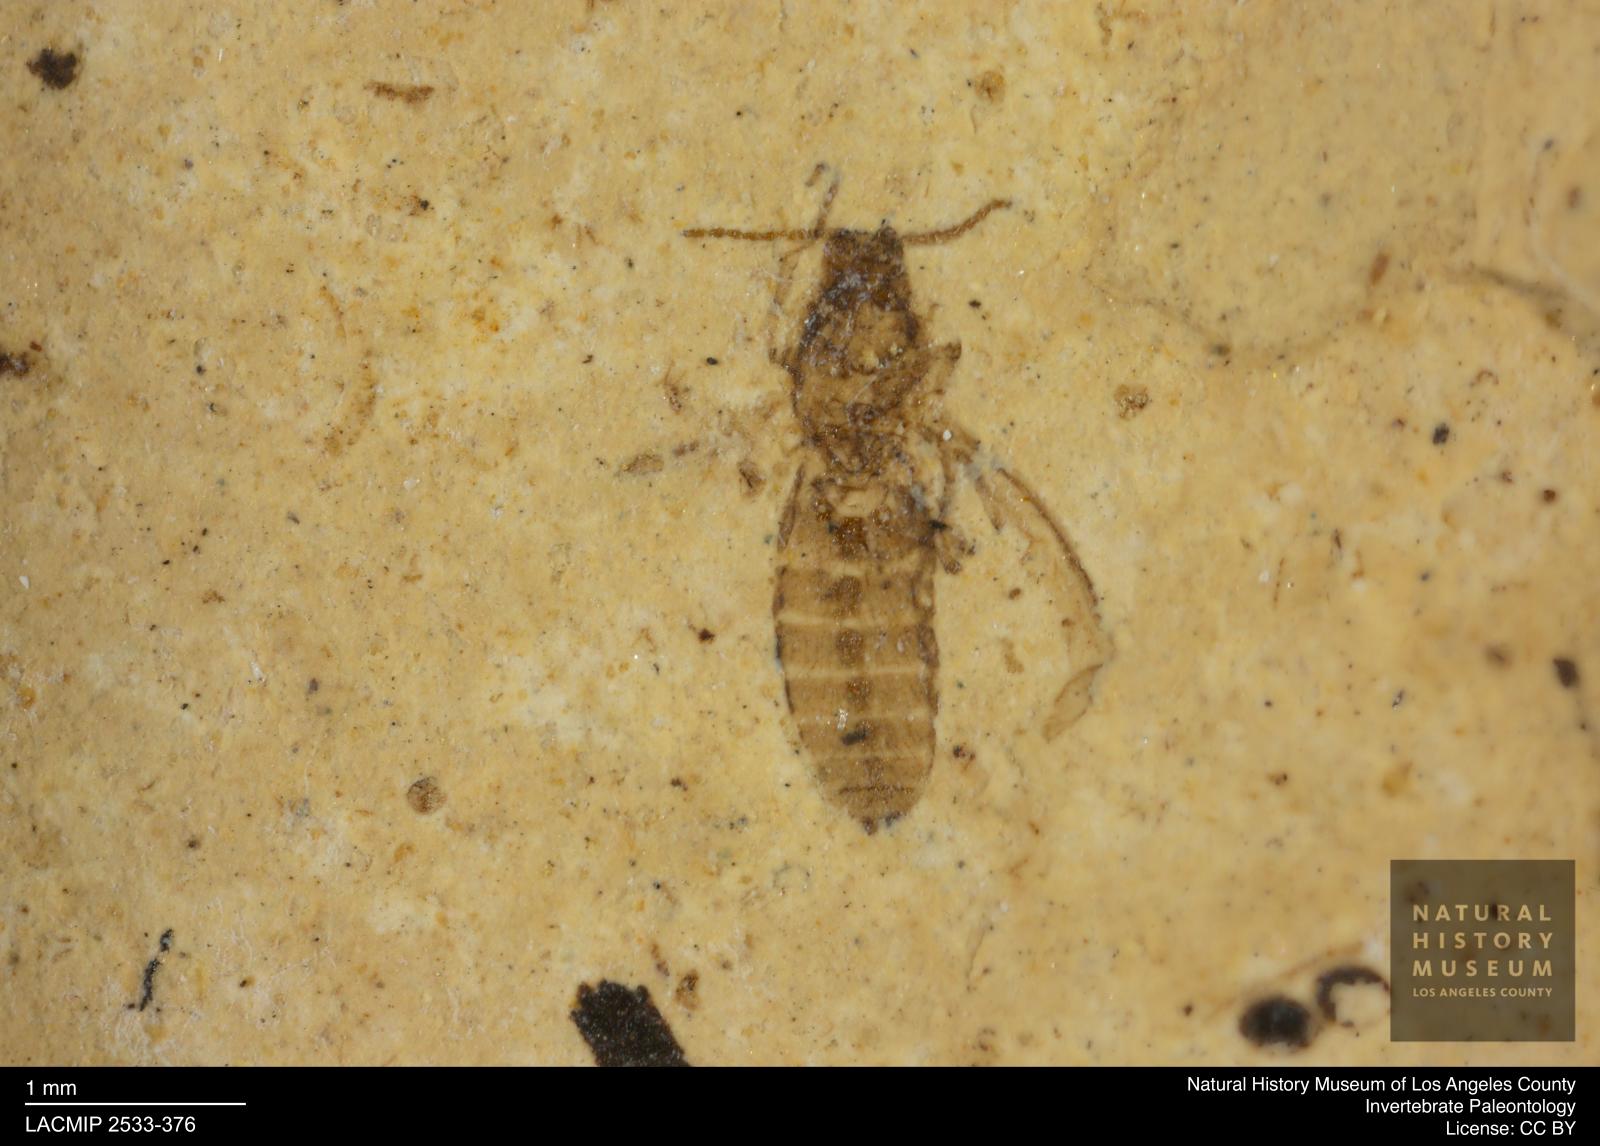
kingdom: Animalia
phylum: Arthropoda
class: Insecta
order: Diptera
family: Ceratopogonidae
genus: Culicoides
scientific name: Culicoides jucundus
